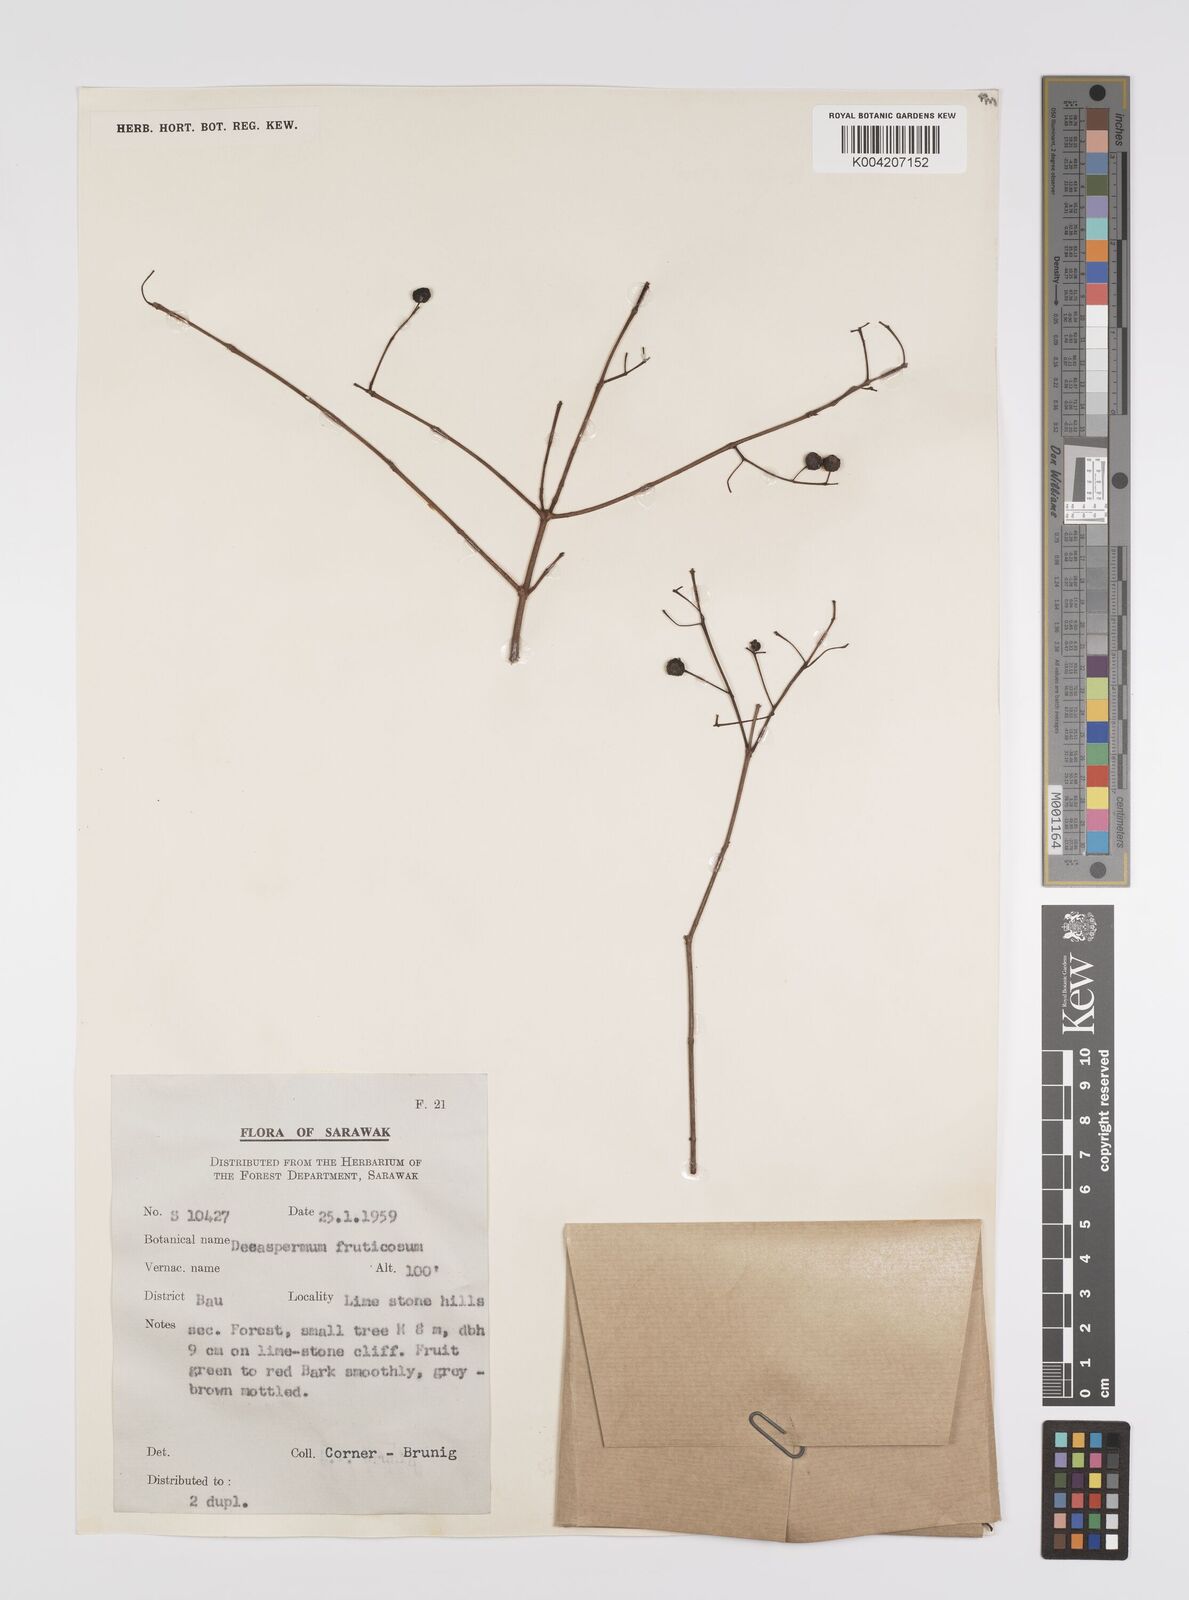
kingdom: Plantae
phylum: Tracheophyta
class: Magnoliopsida
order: Myrtales
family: Myrtaceae
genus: Decaspermum
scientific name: Decaspermum fruticosum
